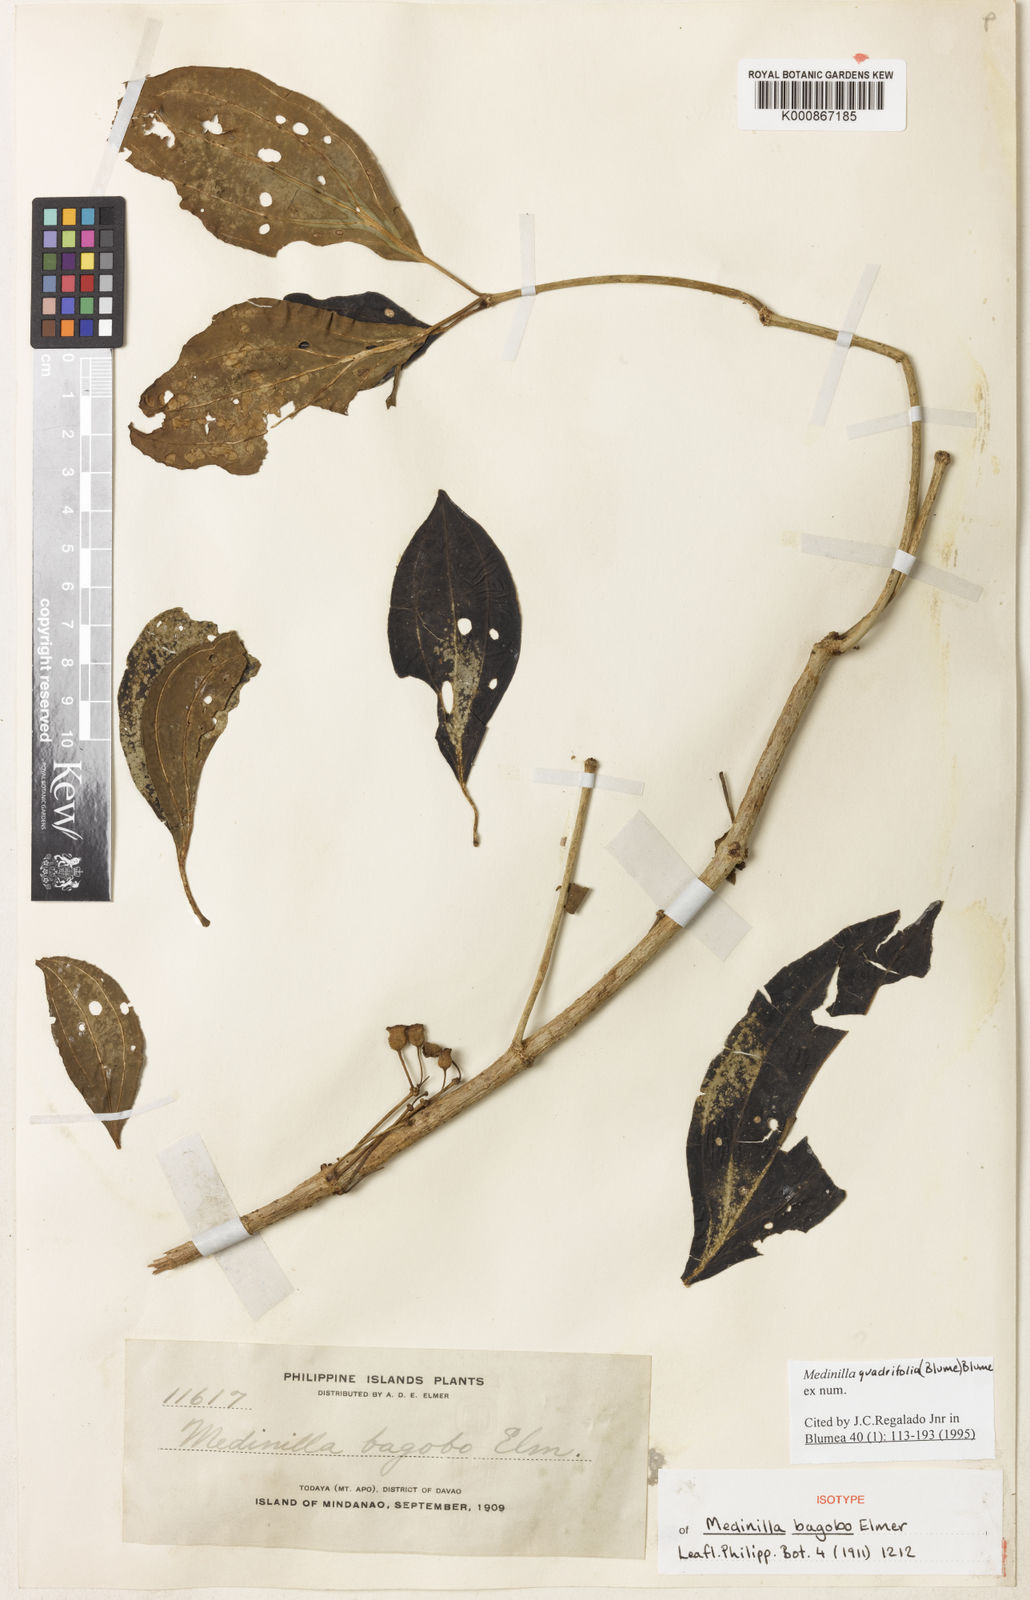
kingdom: Plantae
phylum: Tracheophyta
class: Magnoliopsida
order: Myrtales
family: Melastomataceae
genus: Medinilla
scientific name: Medinilla quadrifolia
